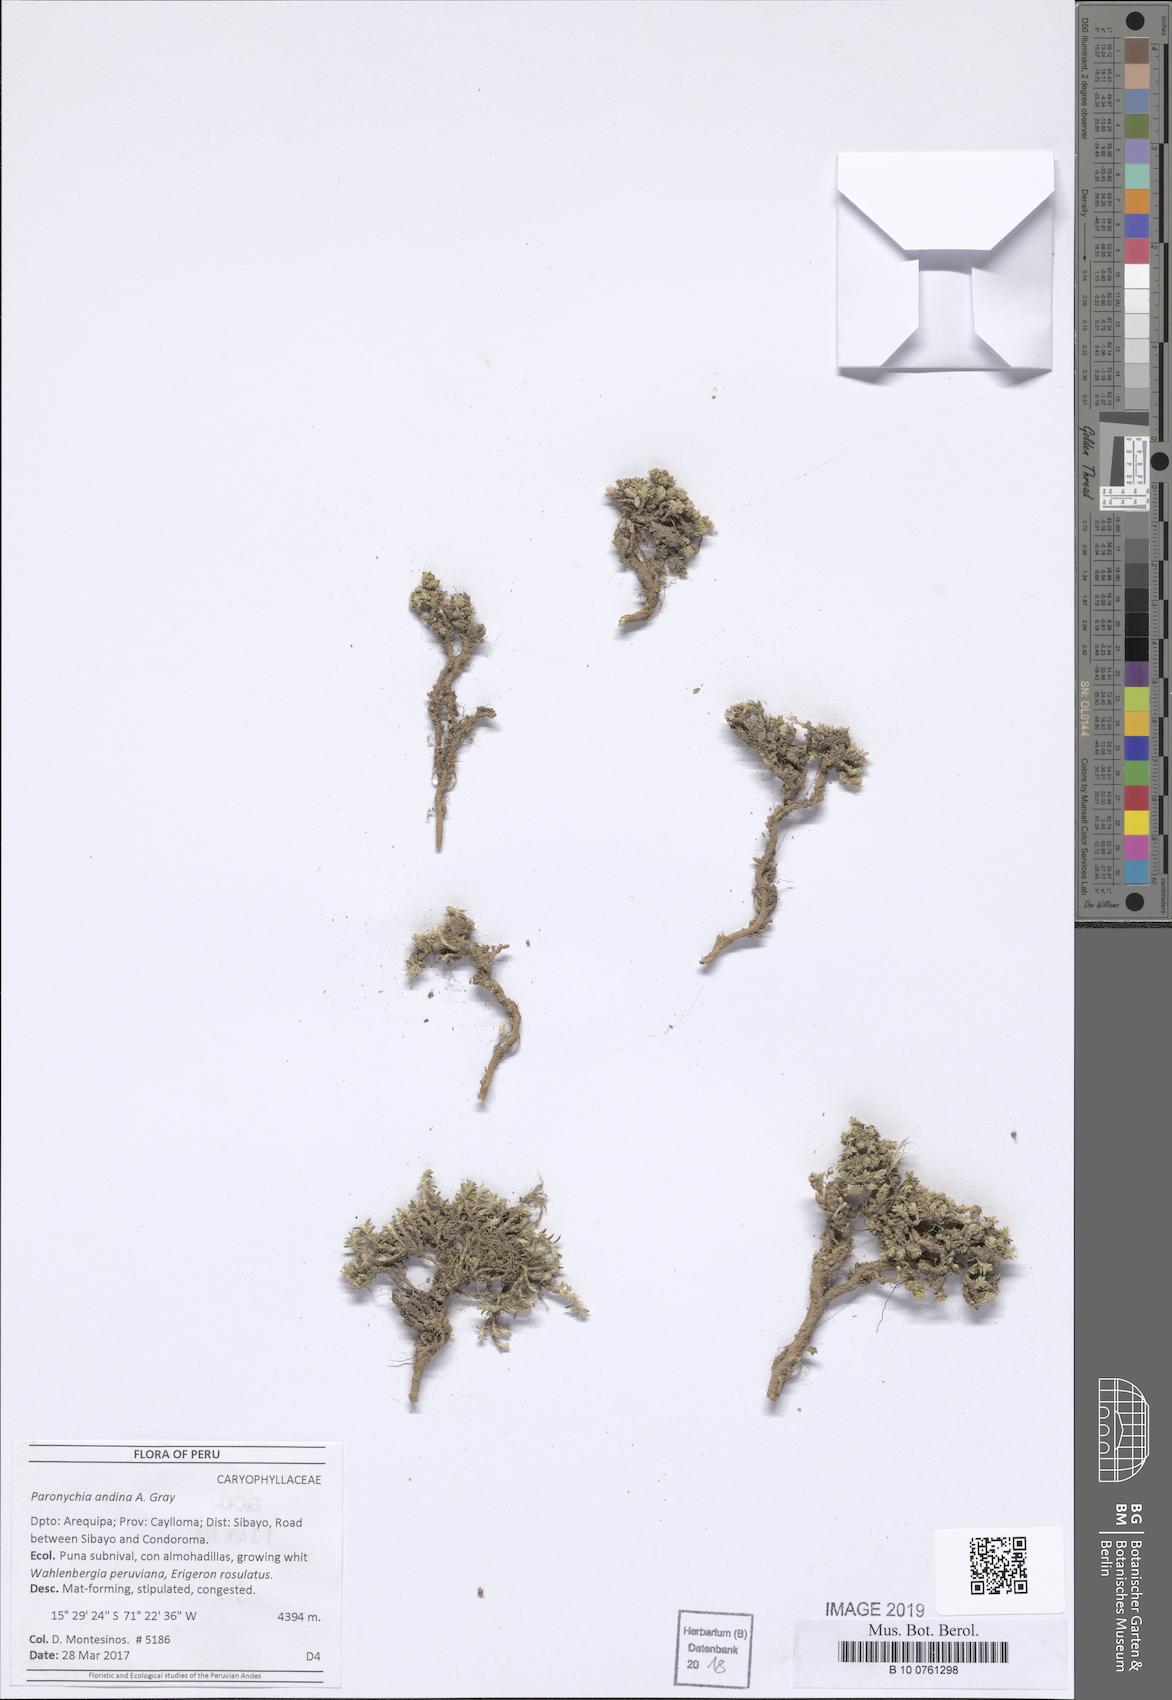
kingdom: Plantae
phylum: Tracheophyta
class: Magnoliopsida
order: Caryophyllales
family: Caryophyllaceae
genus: Paronychia
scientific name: Paronychia
